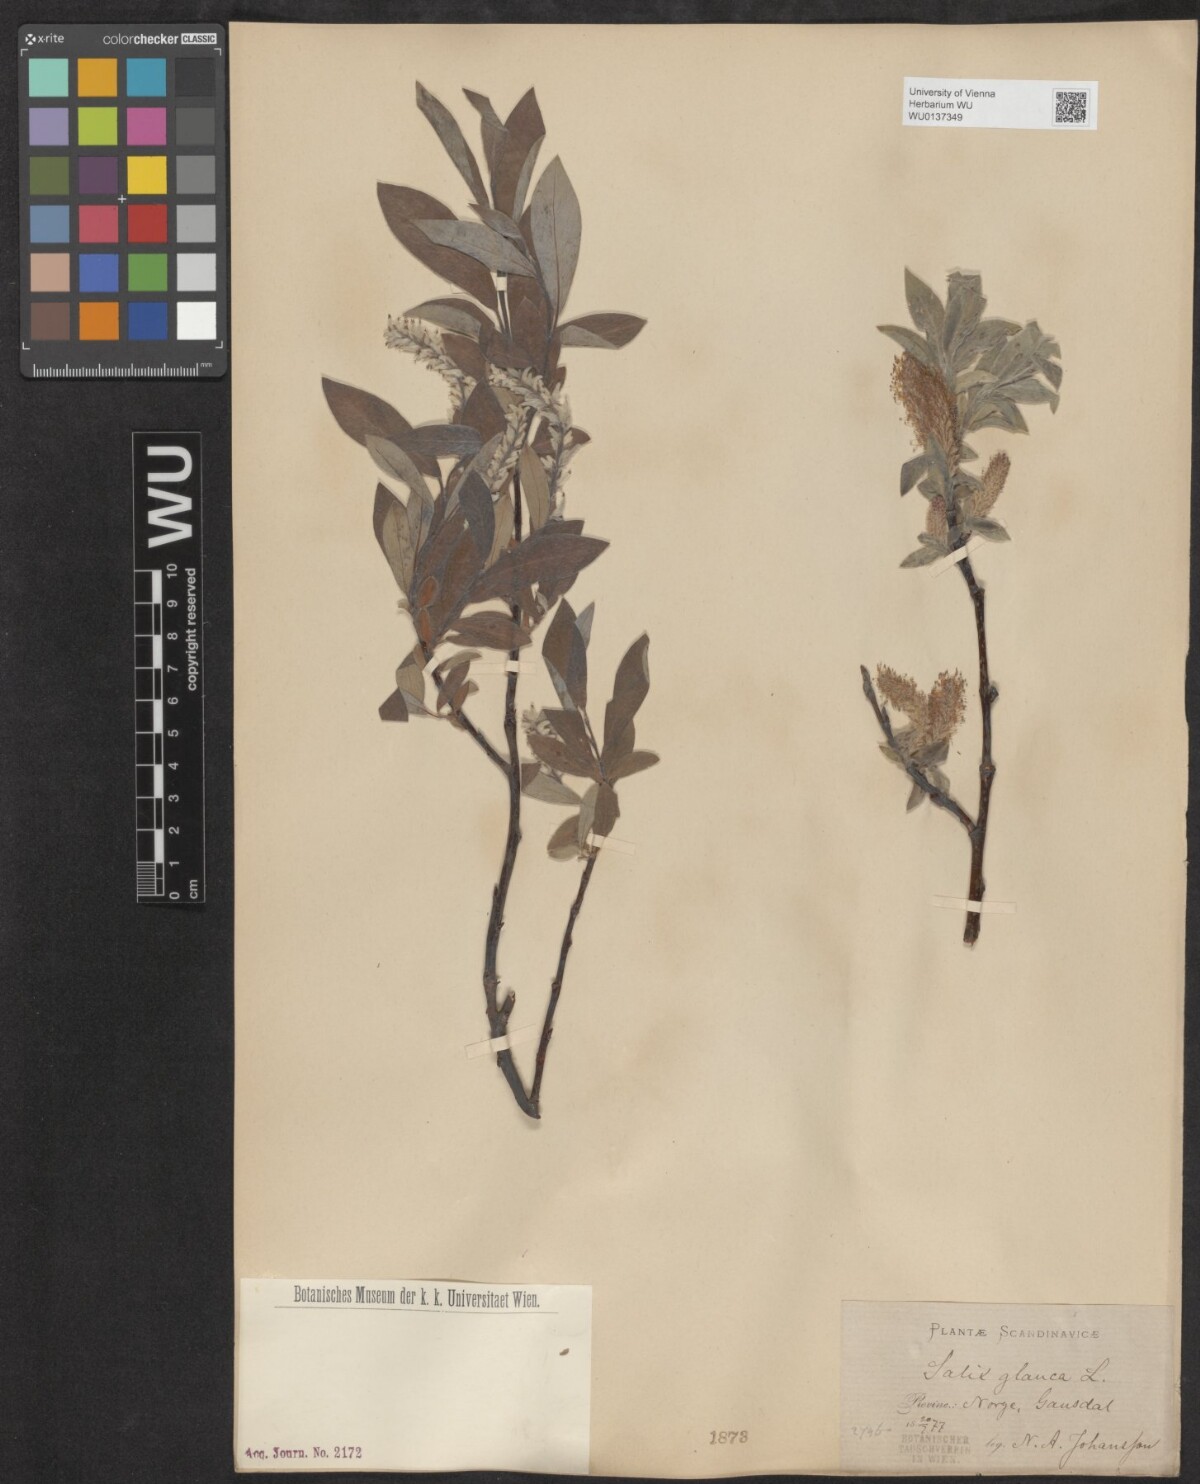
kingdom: Plantae
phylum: Tracheophyta
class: Magnoliopsida
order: Malpighiales
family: Salicaceae
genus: Salix
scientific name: Salix glauca
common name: Glaucous willow
